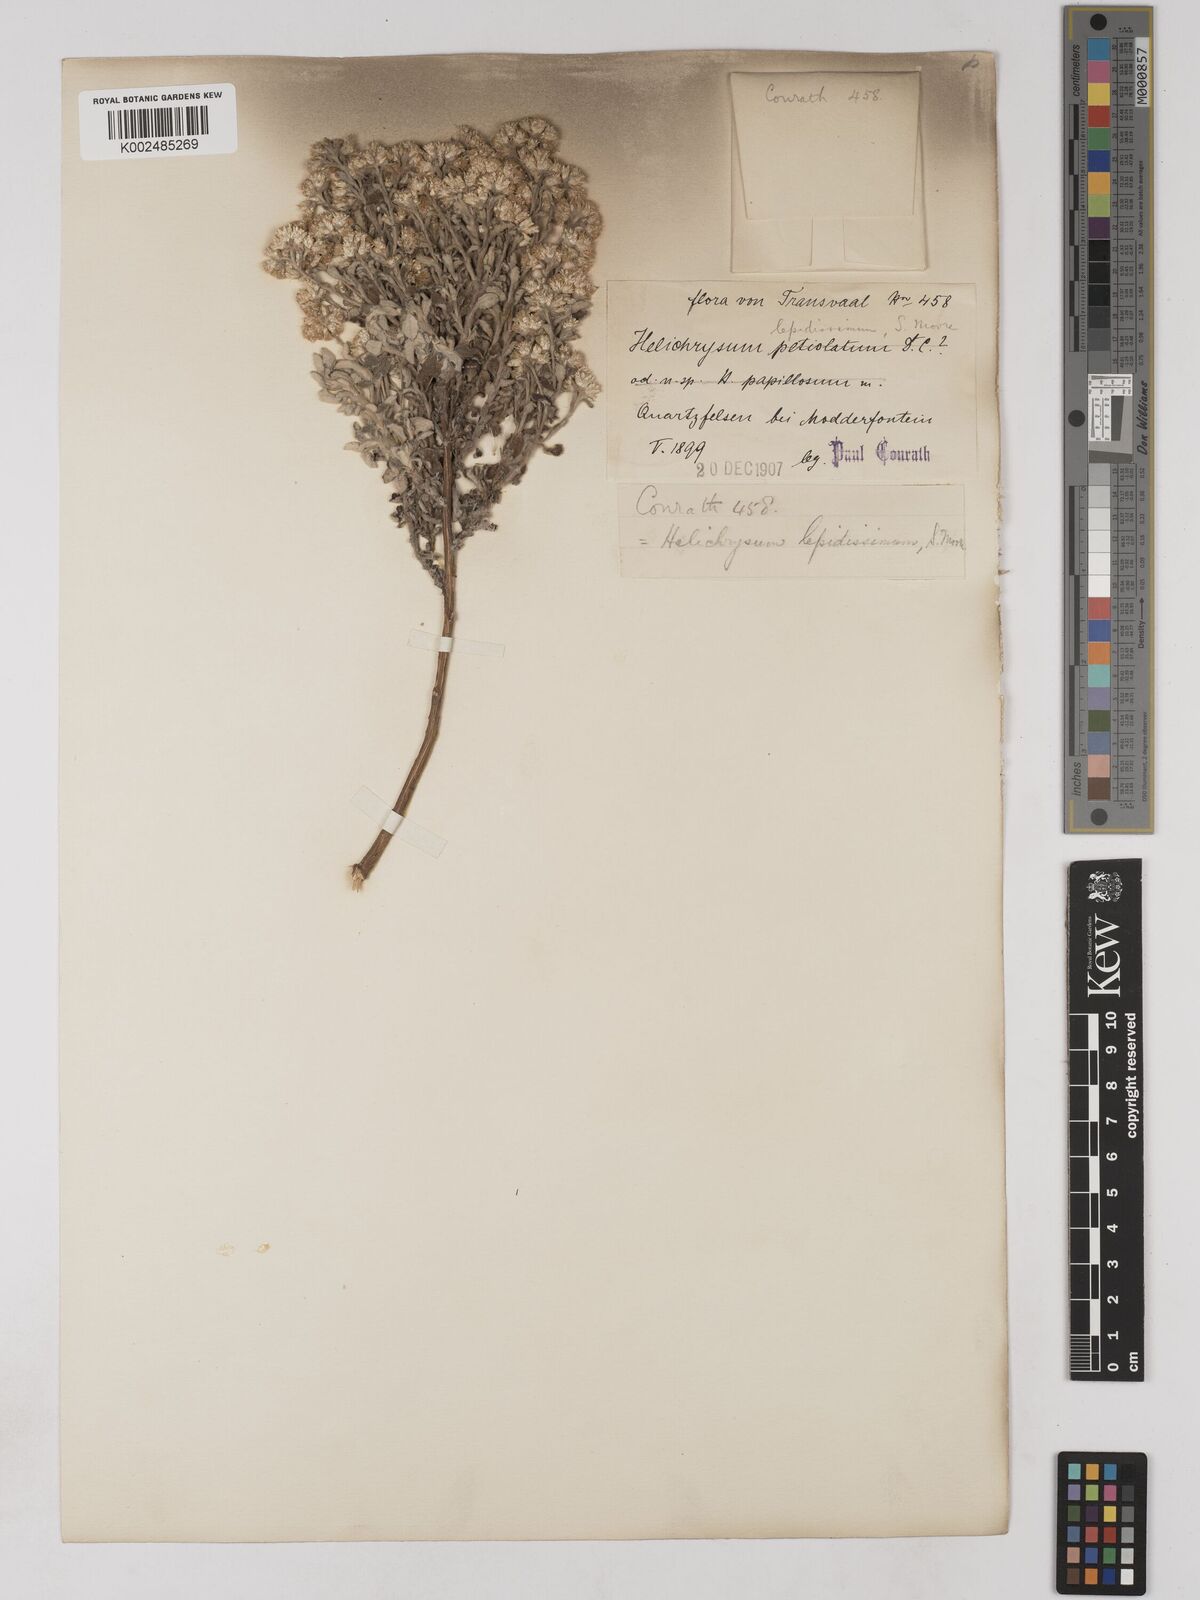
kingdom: Plantae
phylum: Tracheophyta
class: Magnoliopsida
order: Asterales
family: Asteraceae
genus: Helichrysum
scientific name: Helichrysum lepidissimum
